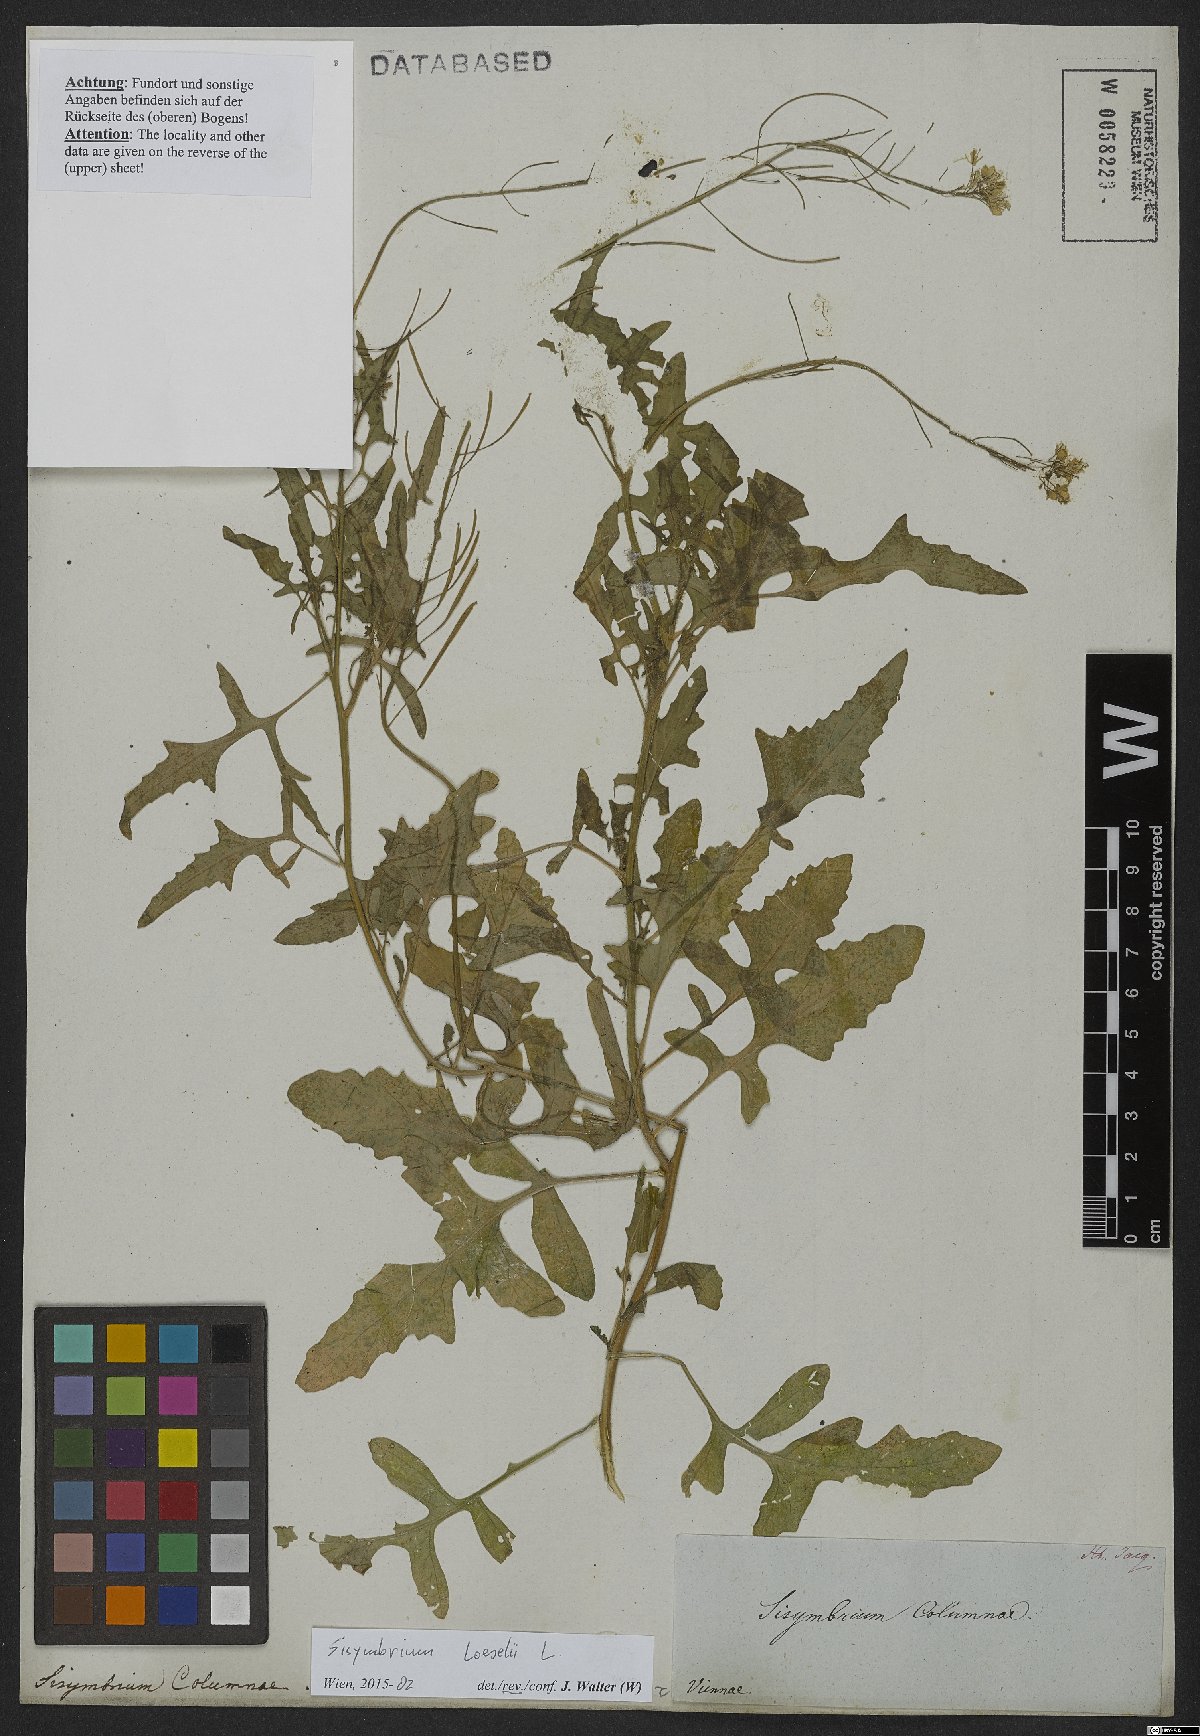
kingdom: Plantae
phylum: Tracheophyta
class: Magnoliopsida
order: Brassicales
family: Brassicaceae
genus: Sisymbrium
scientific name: Sisymbrium loeselii
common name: False london-rocket
